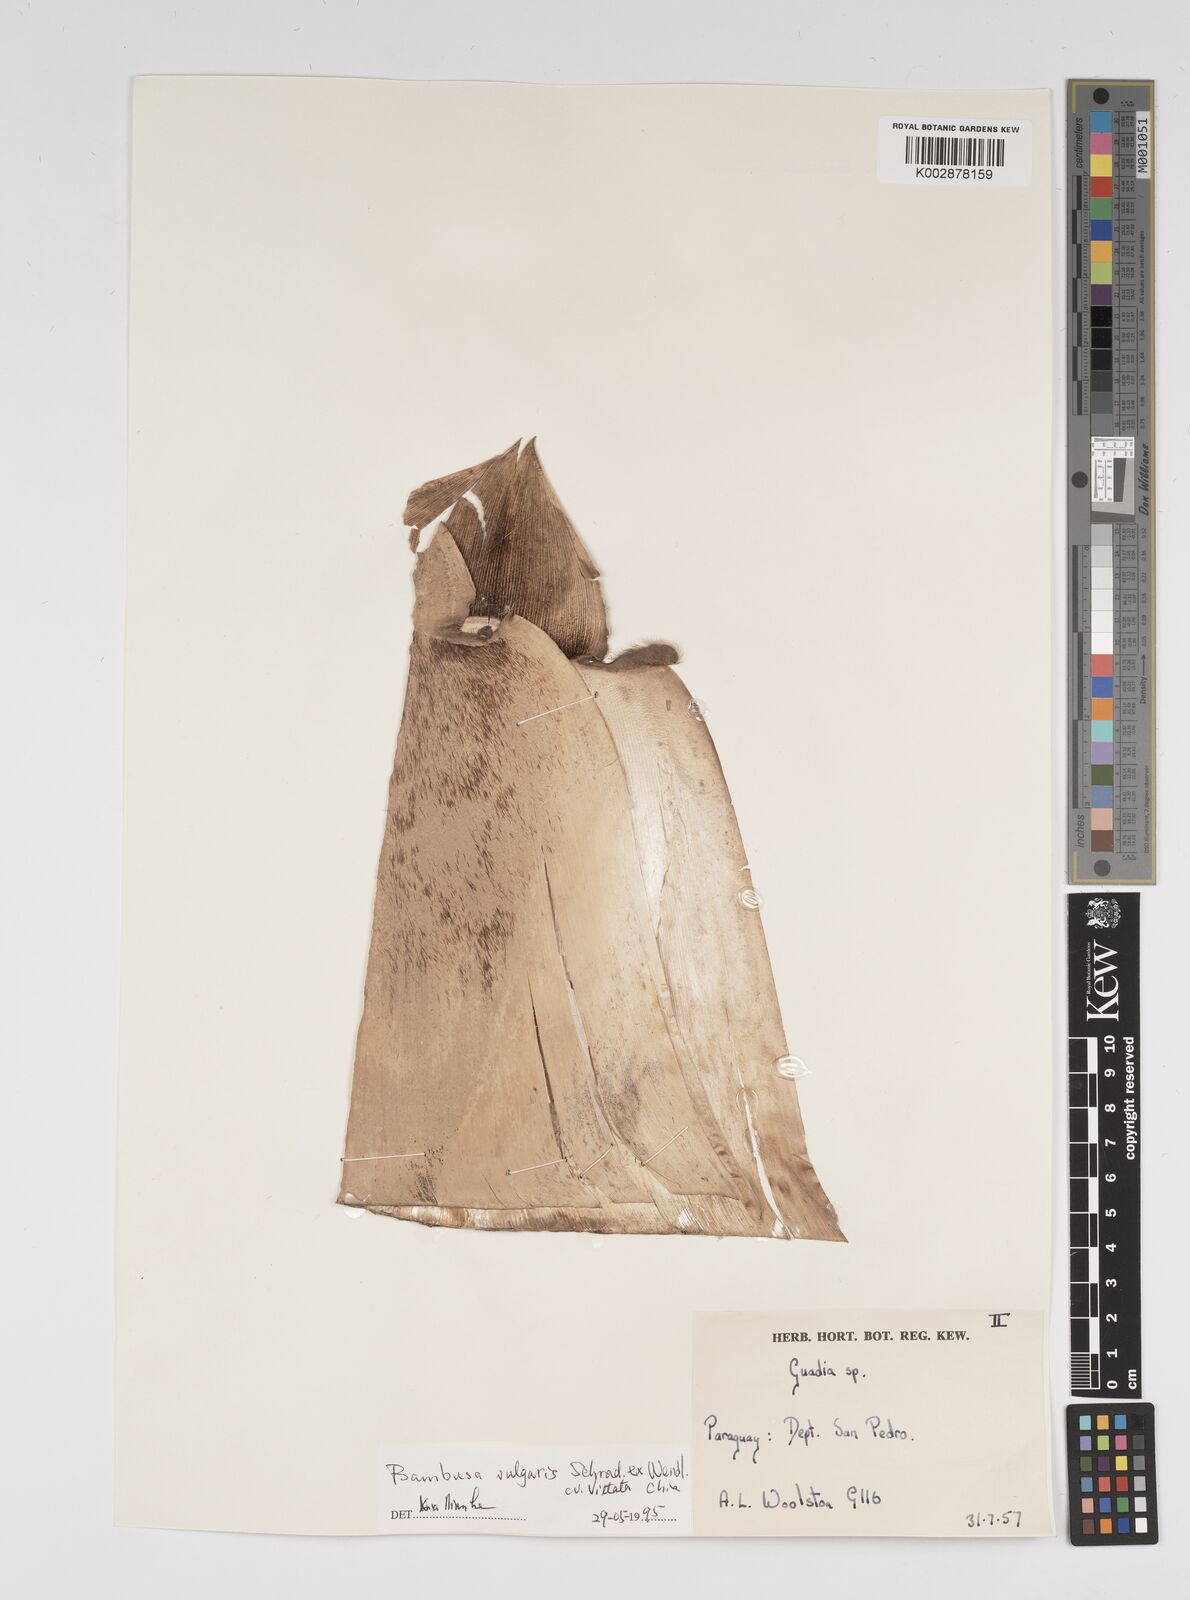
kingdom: Plantae
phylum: Tracheophyta
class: Liliopsida
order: Poales
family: Poaceae
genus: Bambusa
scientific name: Bambusa
